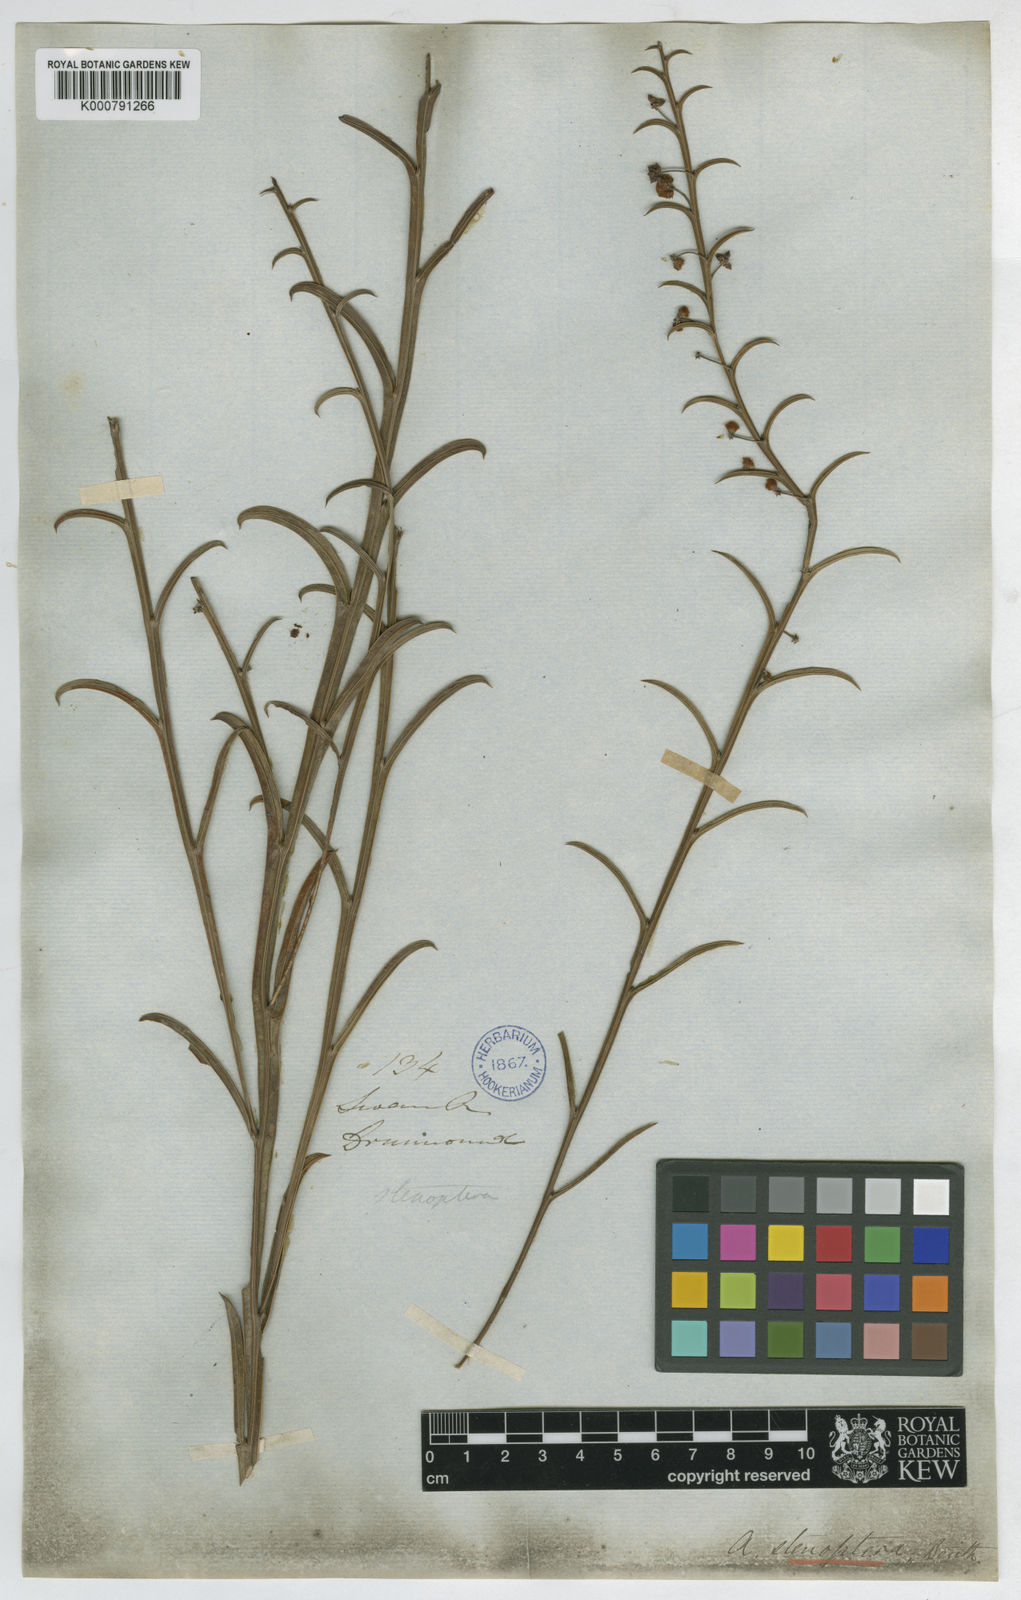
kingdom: Plantae
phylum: Tracheophyta
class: Magnoliopsida
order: Fabales
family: Fabaceae
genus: Acacia
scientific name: Acacia stenoptera
